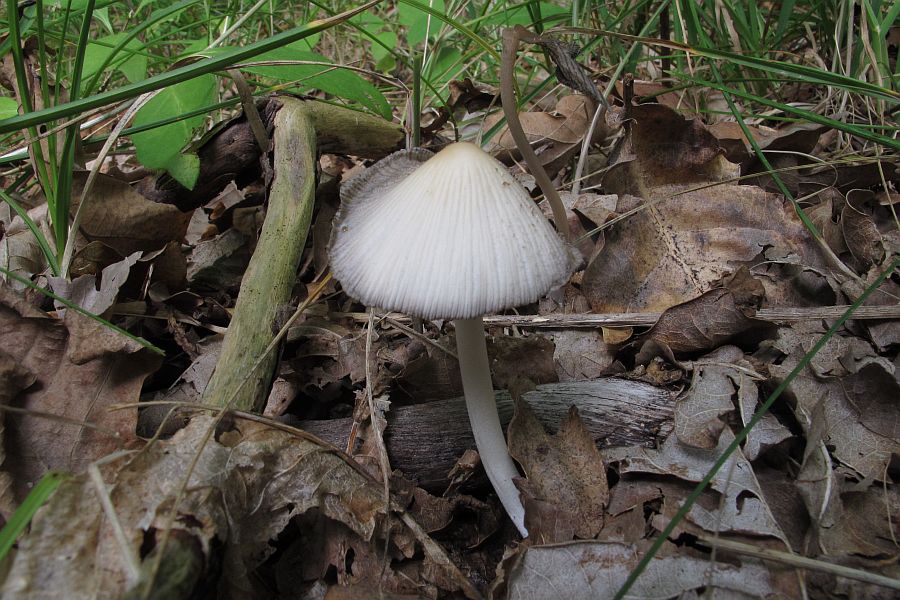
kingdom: Fungi
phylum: Basidiomycota
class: Agaricomycetes
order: Agaricales
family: Psathyrellaceae
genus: Coprinellus
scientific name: Coprinellus xanthothrix
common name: gultrådet blækhat
